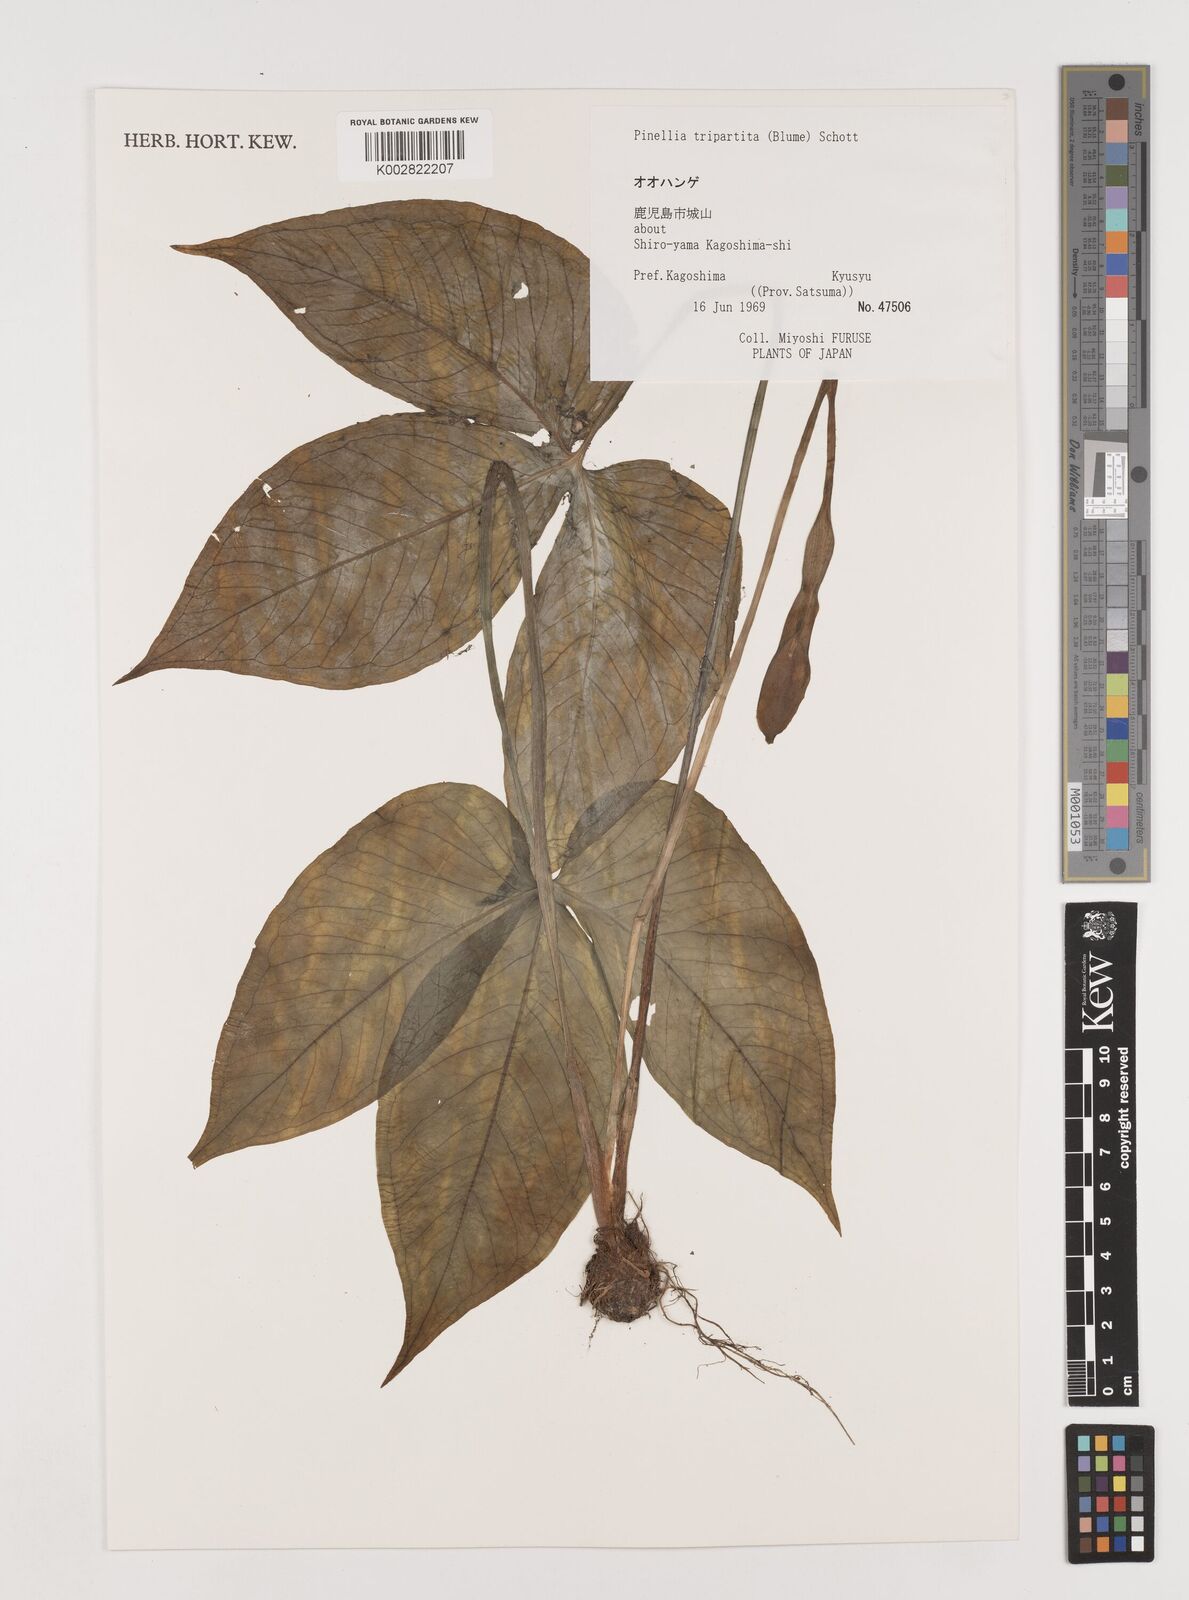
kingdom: Plantae
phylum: Tracheophyta
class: Liliopsida
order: Alismatales
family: Araceae
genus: Pinellia
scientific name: Pinellia tripartita
